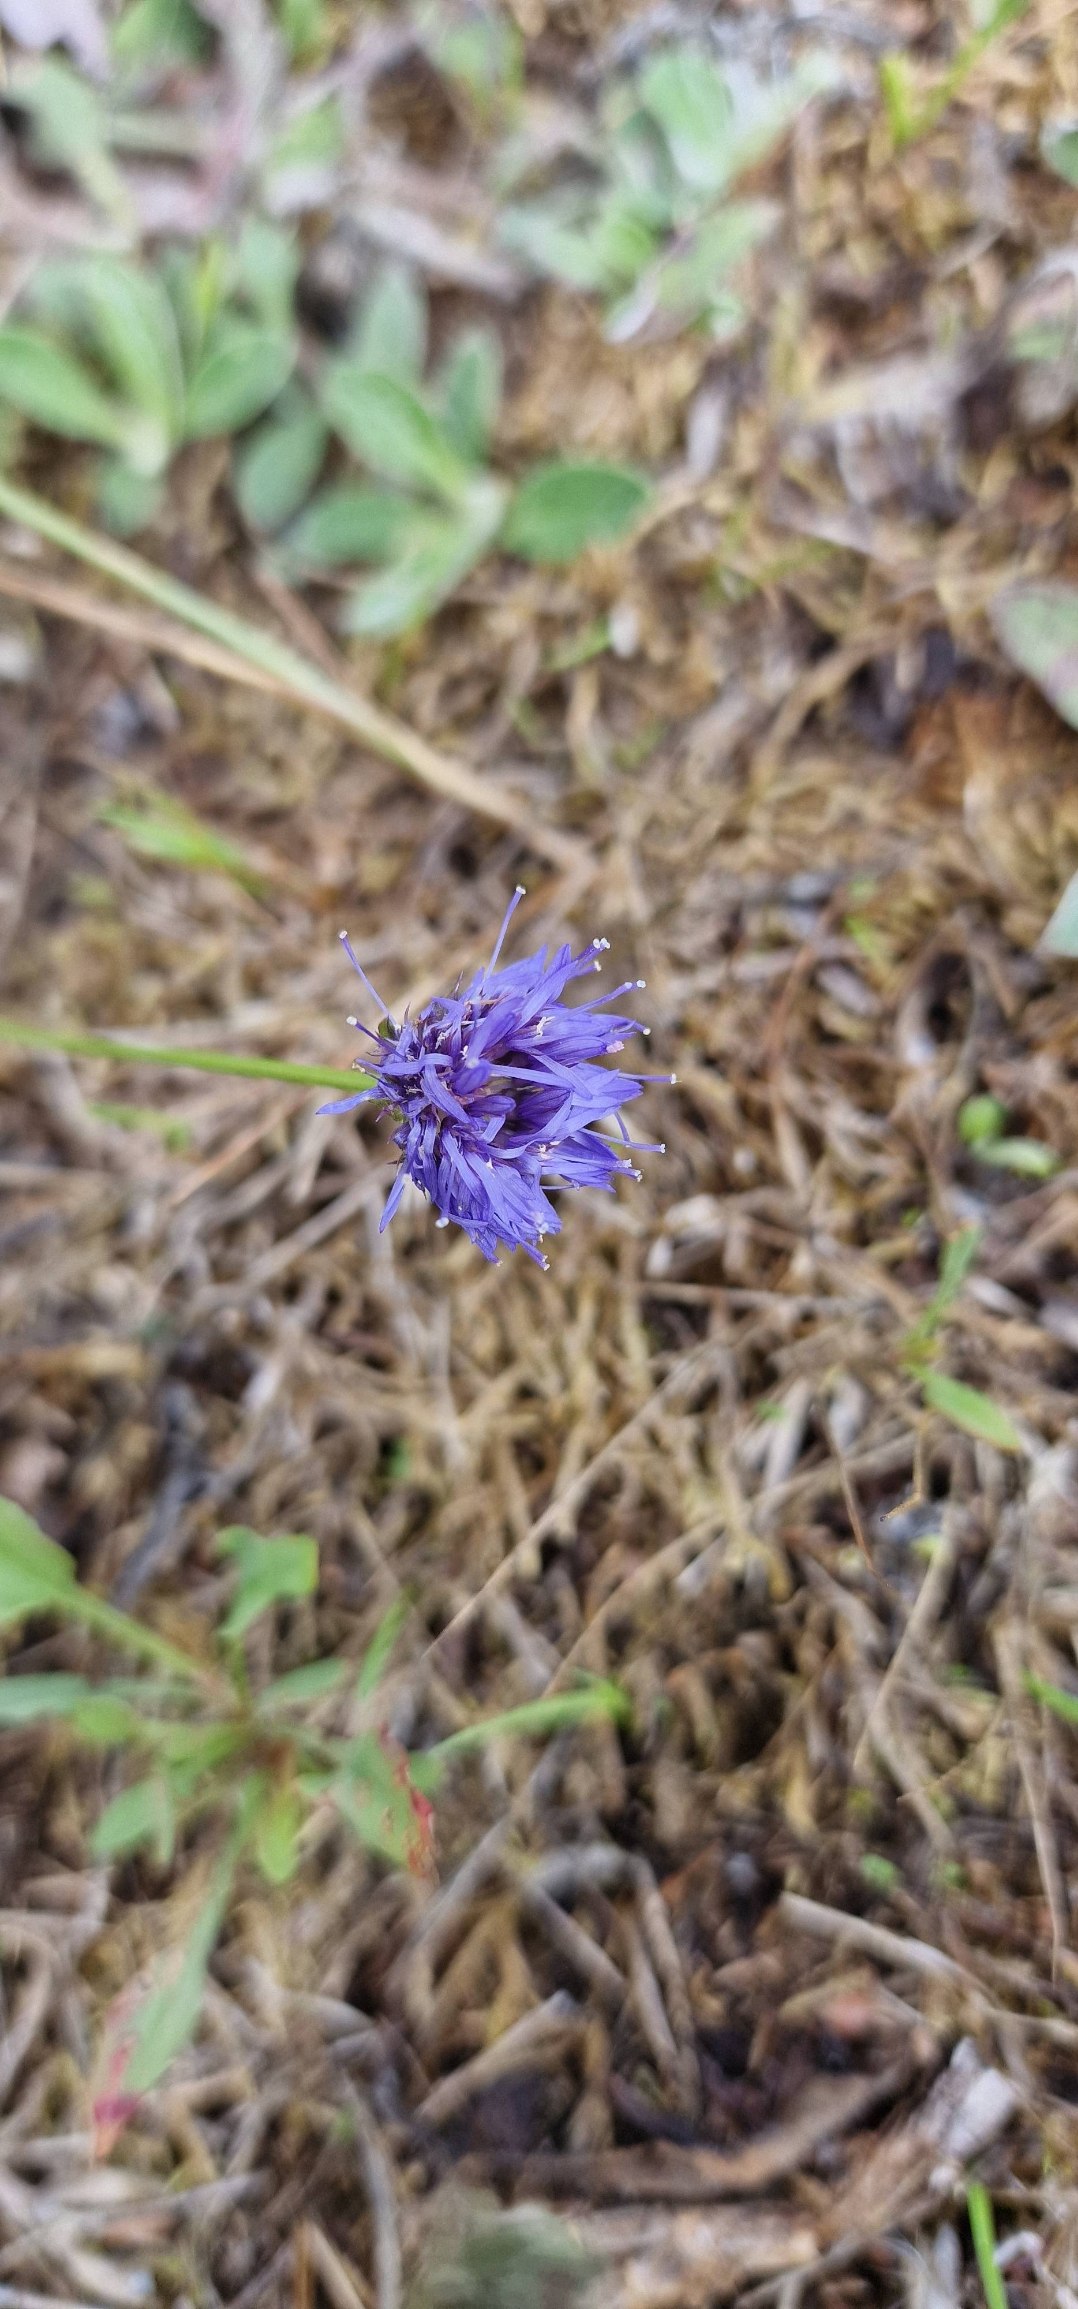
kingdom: Plantae
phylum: Tracheophyta
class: Magnoliopsida
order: Asterales
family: Campanulaceae
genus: Jasione
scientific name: Jasione montana
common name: Blåmunke
